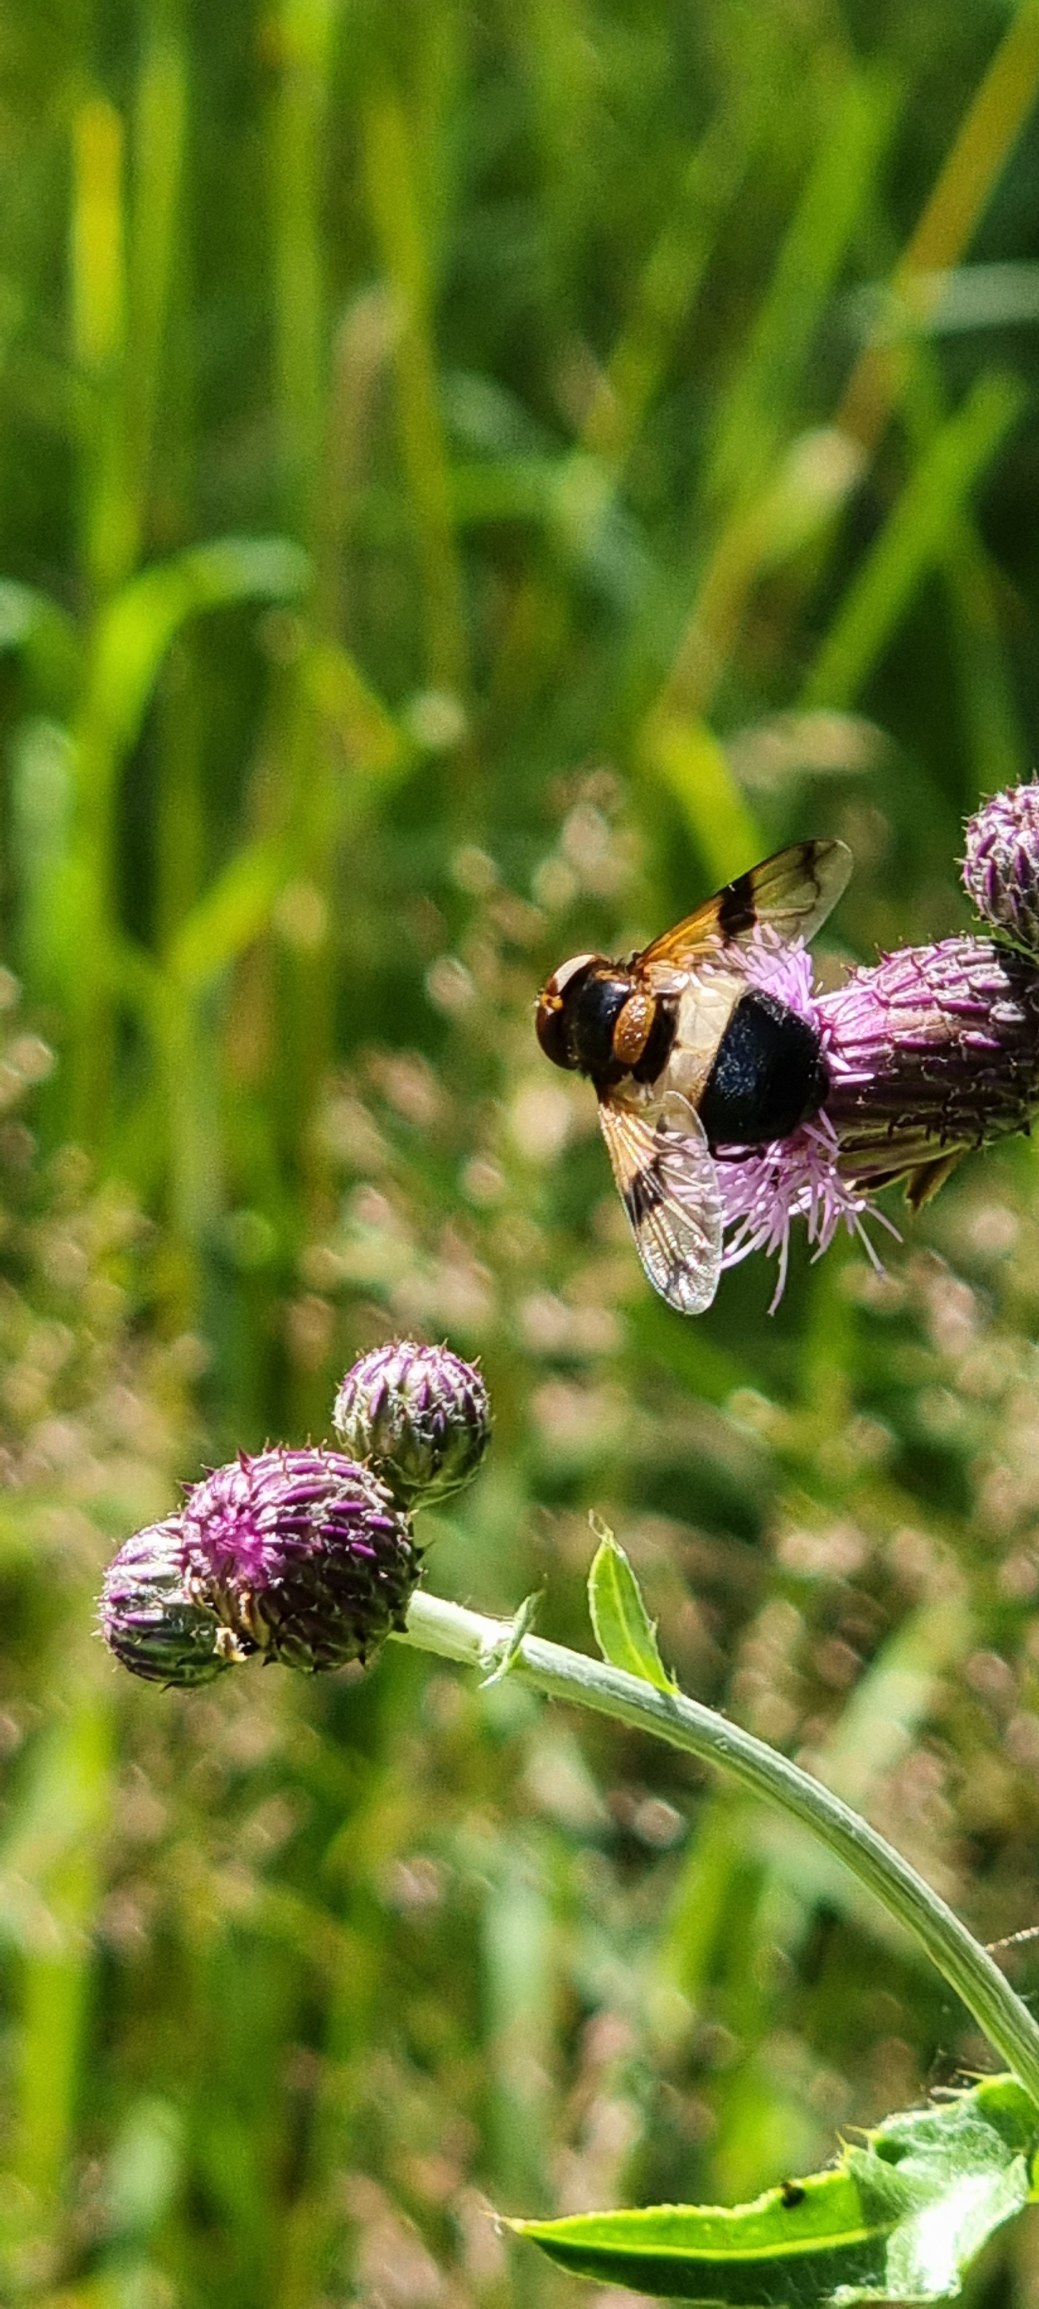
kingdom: Animalia
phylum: Arthropoda
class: Insecta
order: Diptera
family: Syrphidae
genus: Volucella
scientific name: Volucella pellucens
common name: Hvidbåndet humlesvirreflue
